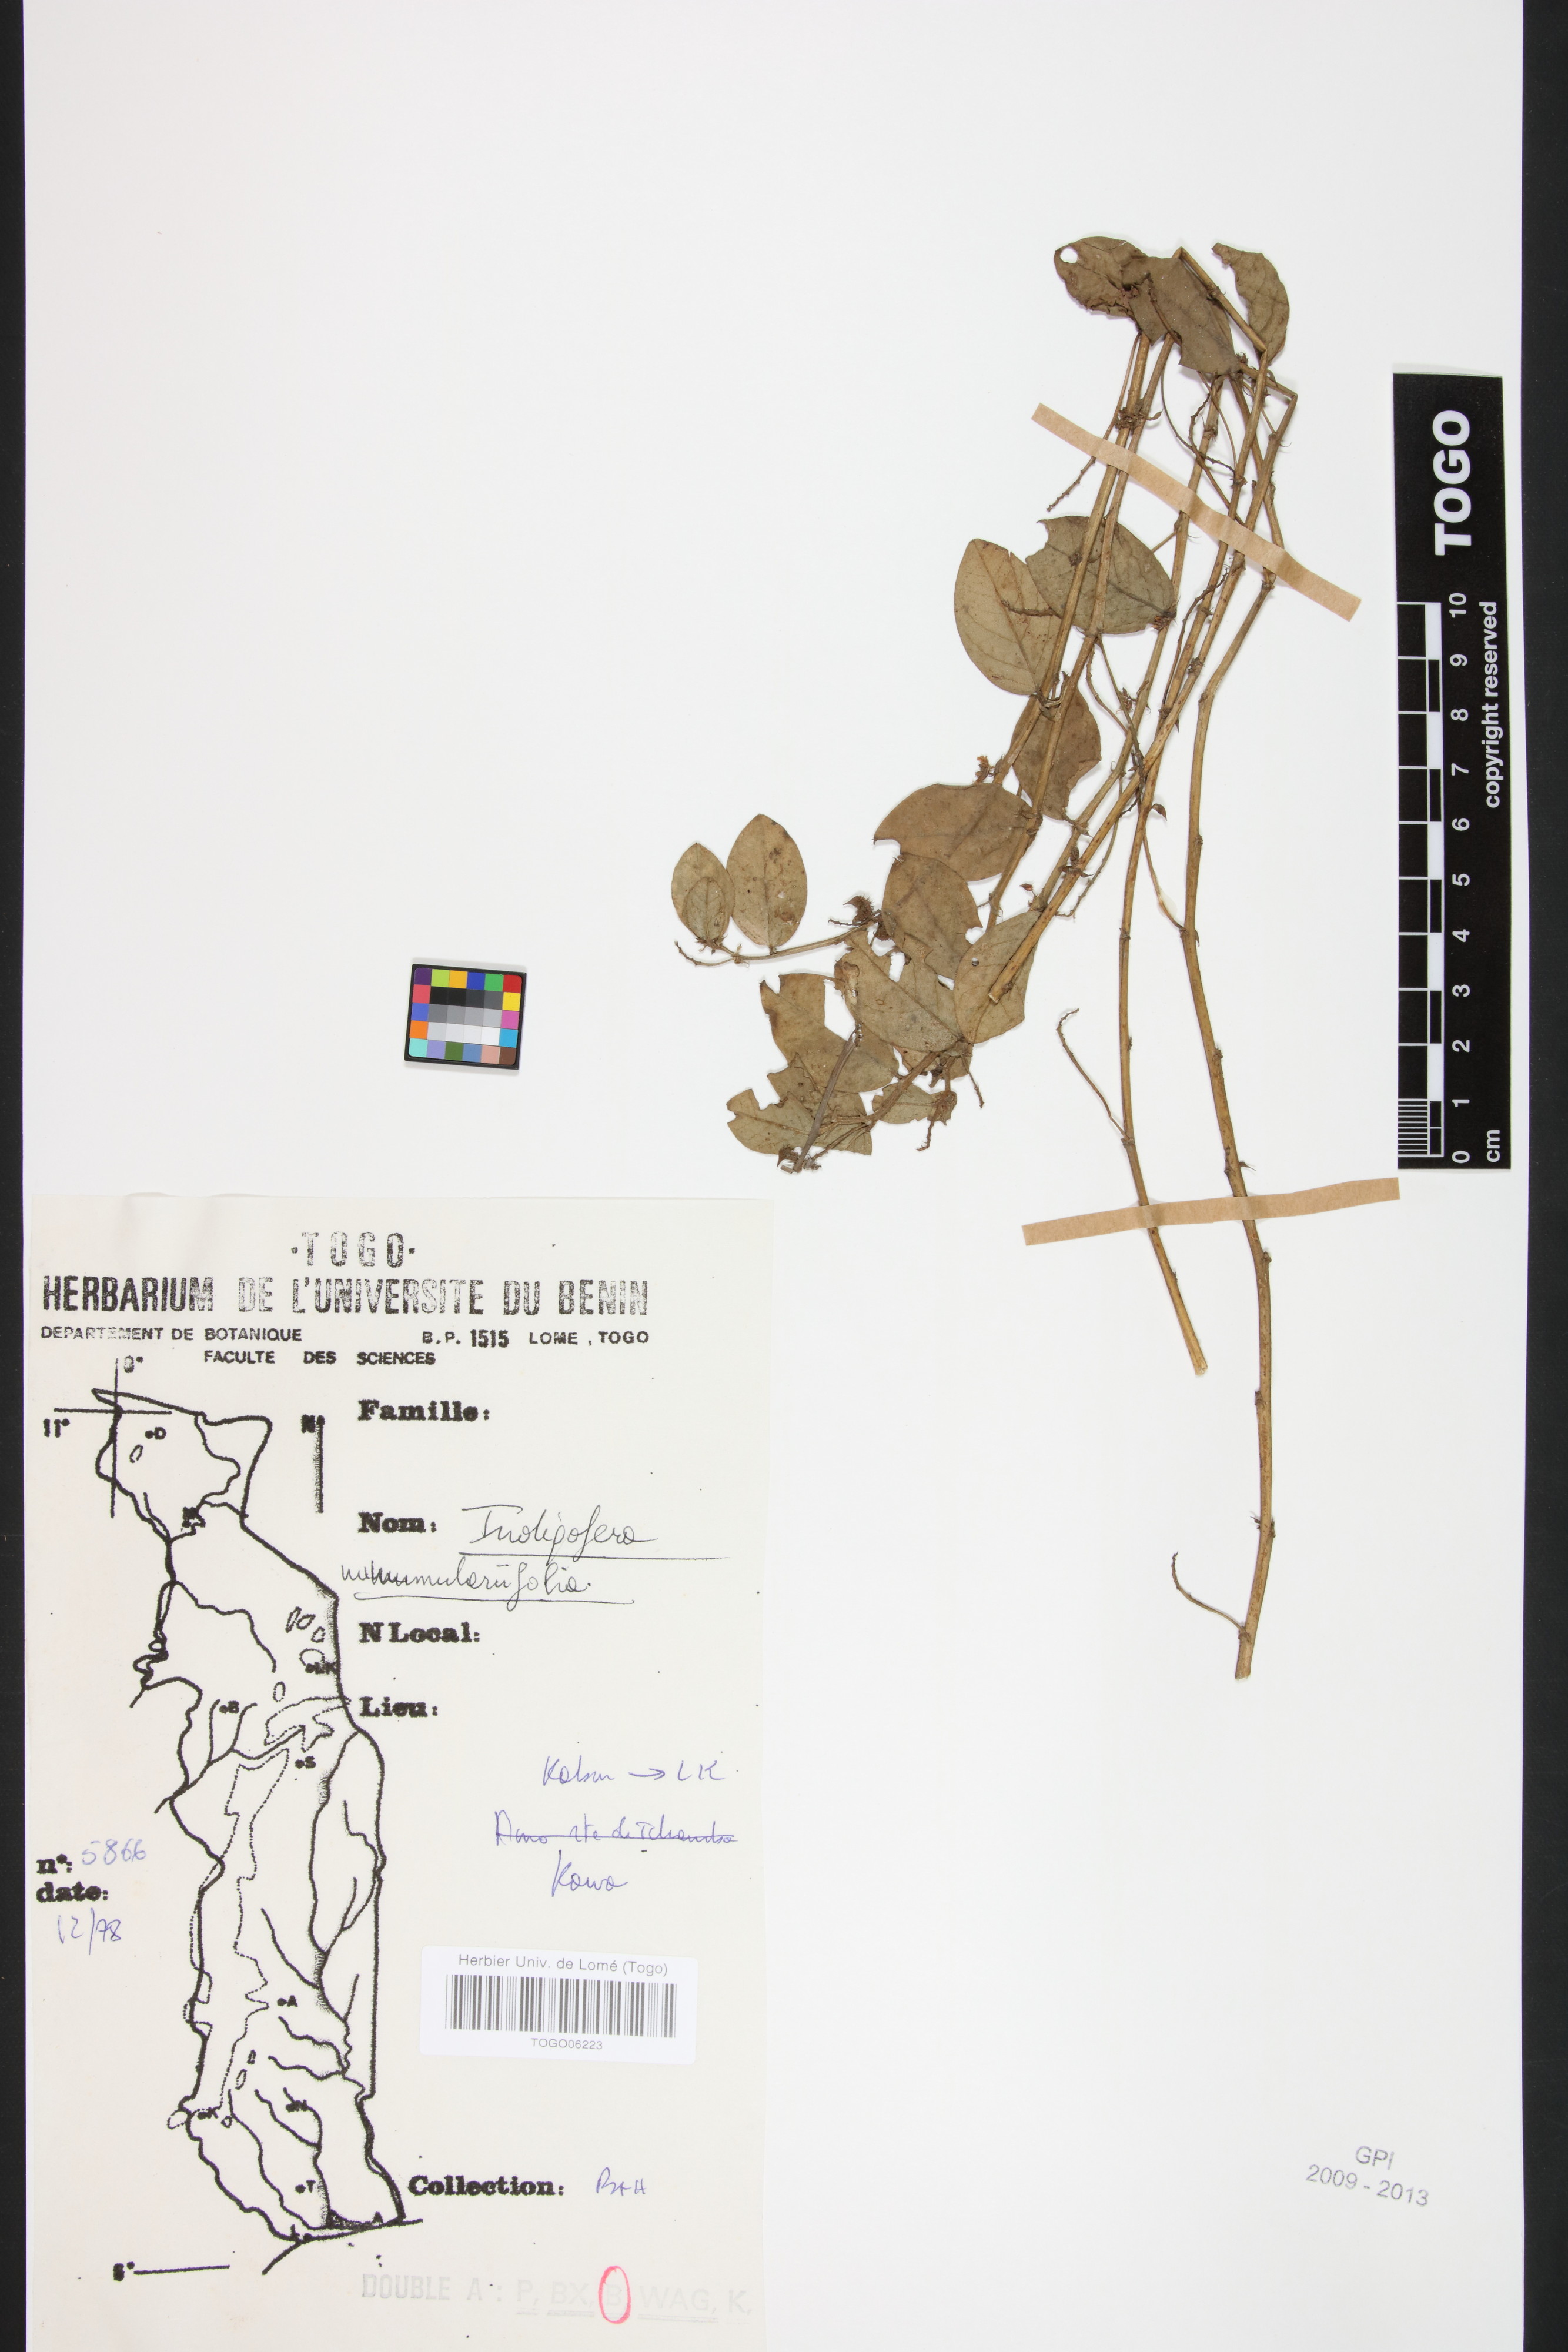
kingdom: Plantae
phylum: Tracheophyta
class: Magnoliopsida
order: Fabales
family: Fabaceae
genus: Indigofera
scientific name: Indigofera nummulariifolia
